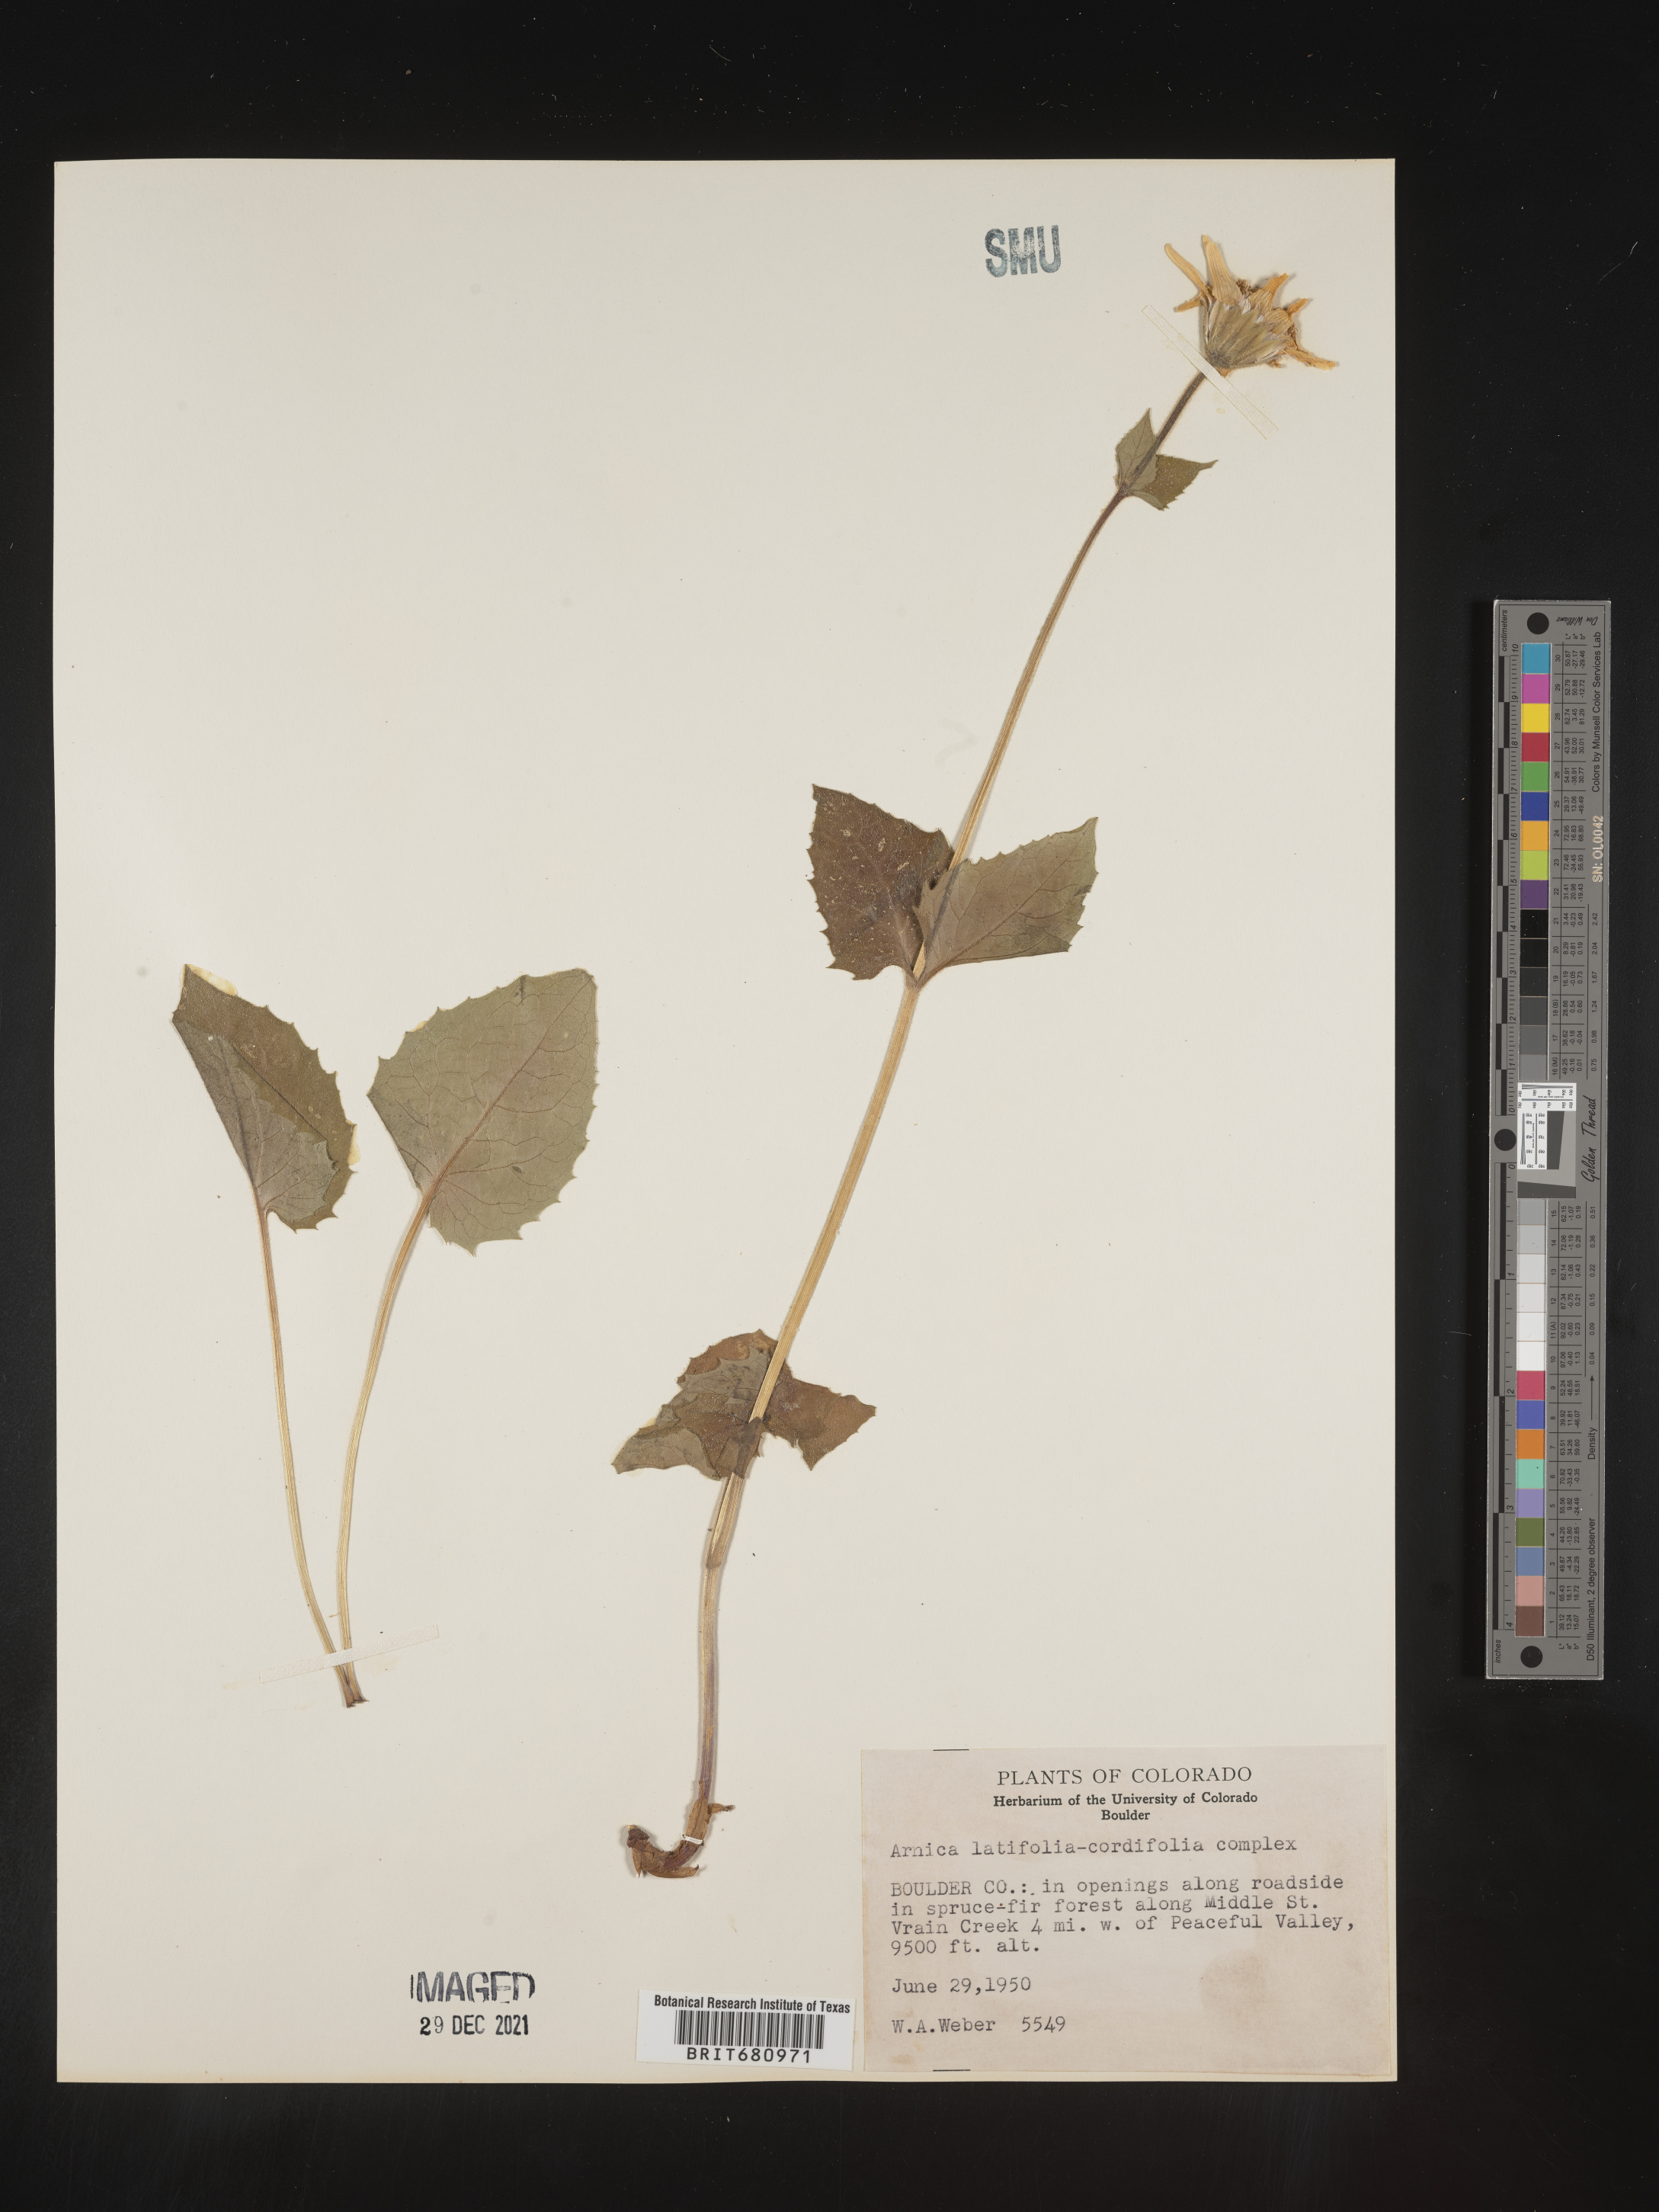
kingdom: Plantae
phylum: Tracheophyta
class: Magnoliopsida
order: Asterales
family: Asteraceae
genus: Arnica
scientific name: Arnica latifolia
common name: Arnica
